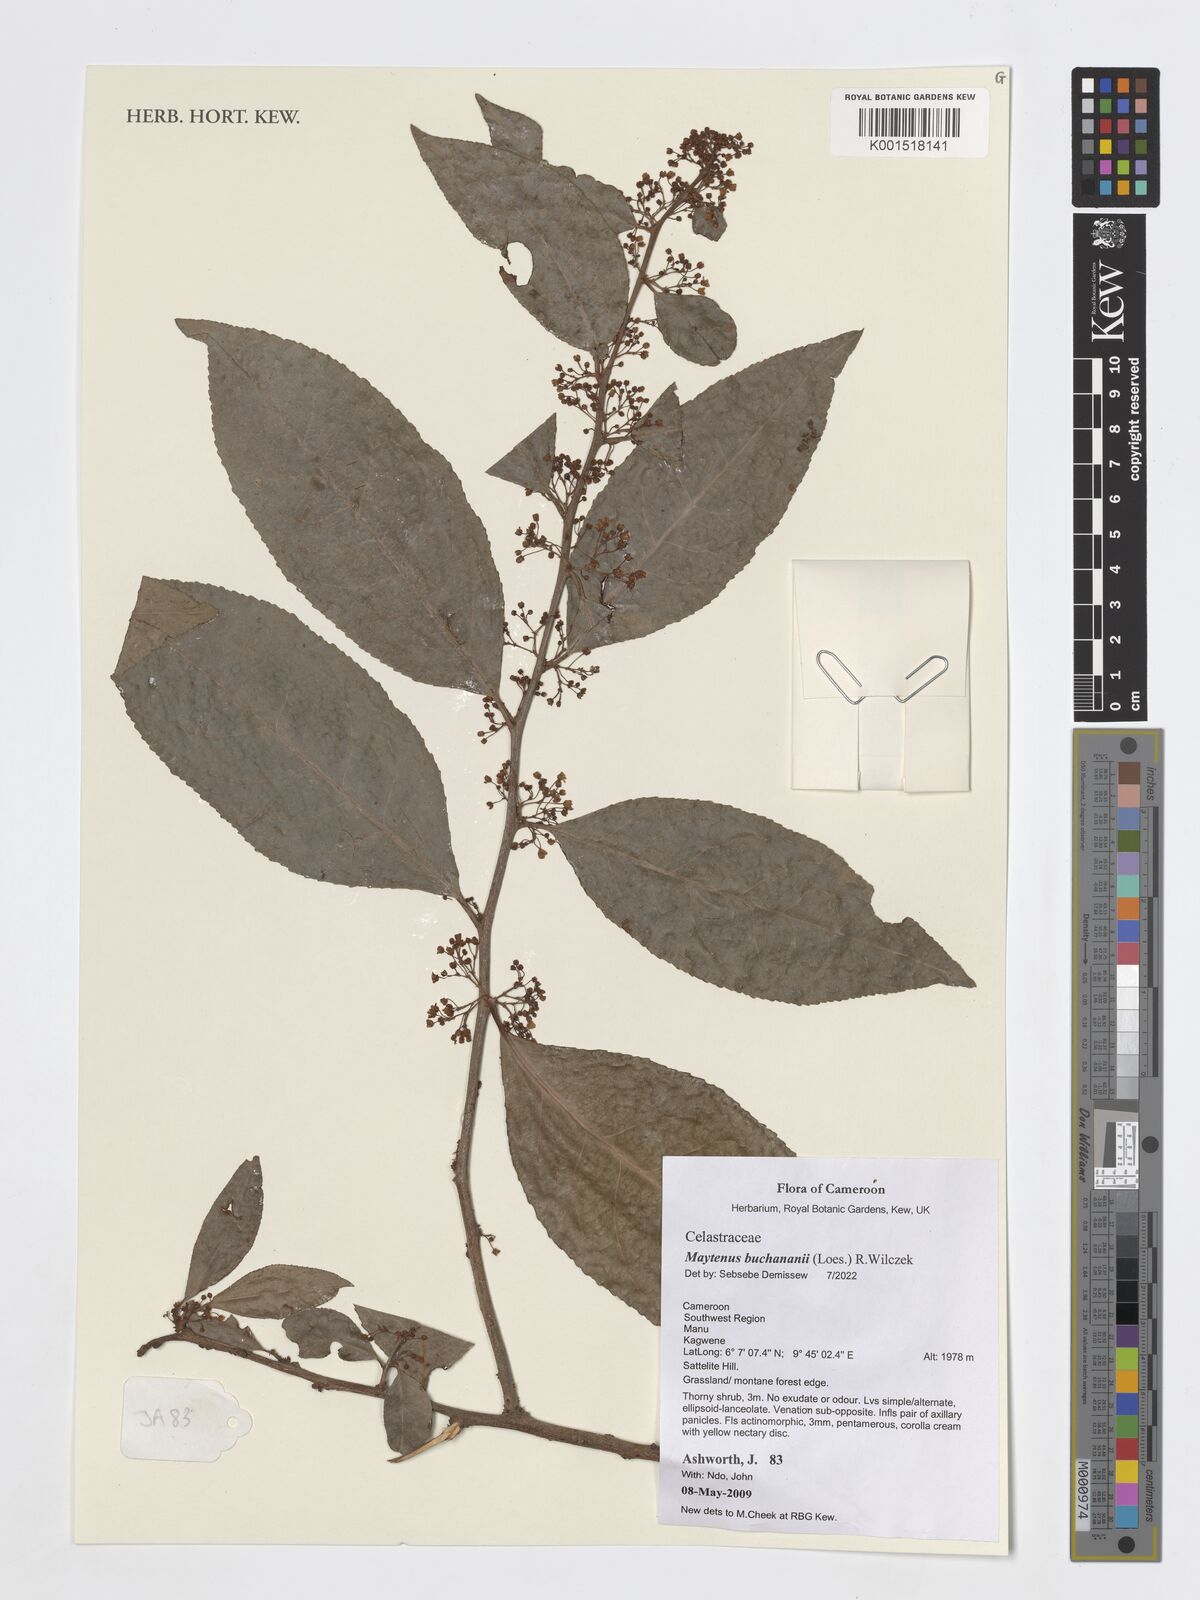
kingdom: Plantae
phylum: Tracheophyta
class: Magnoliopsida
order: Celastrales
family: Celastraceae
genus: Gymnosporia
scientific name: Gymnosporia buchananii
